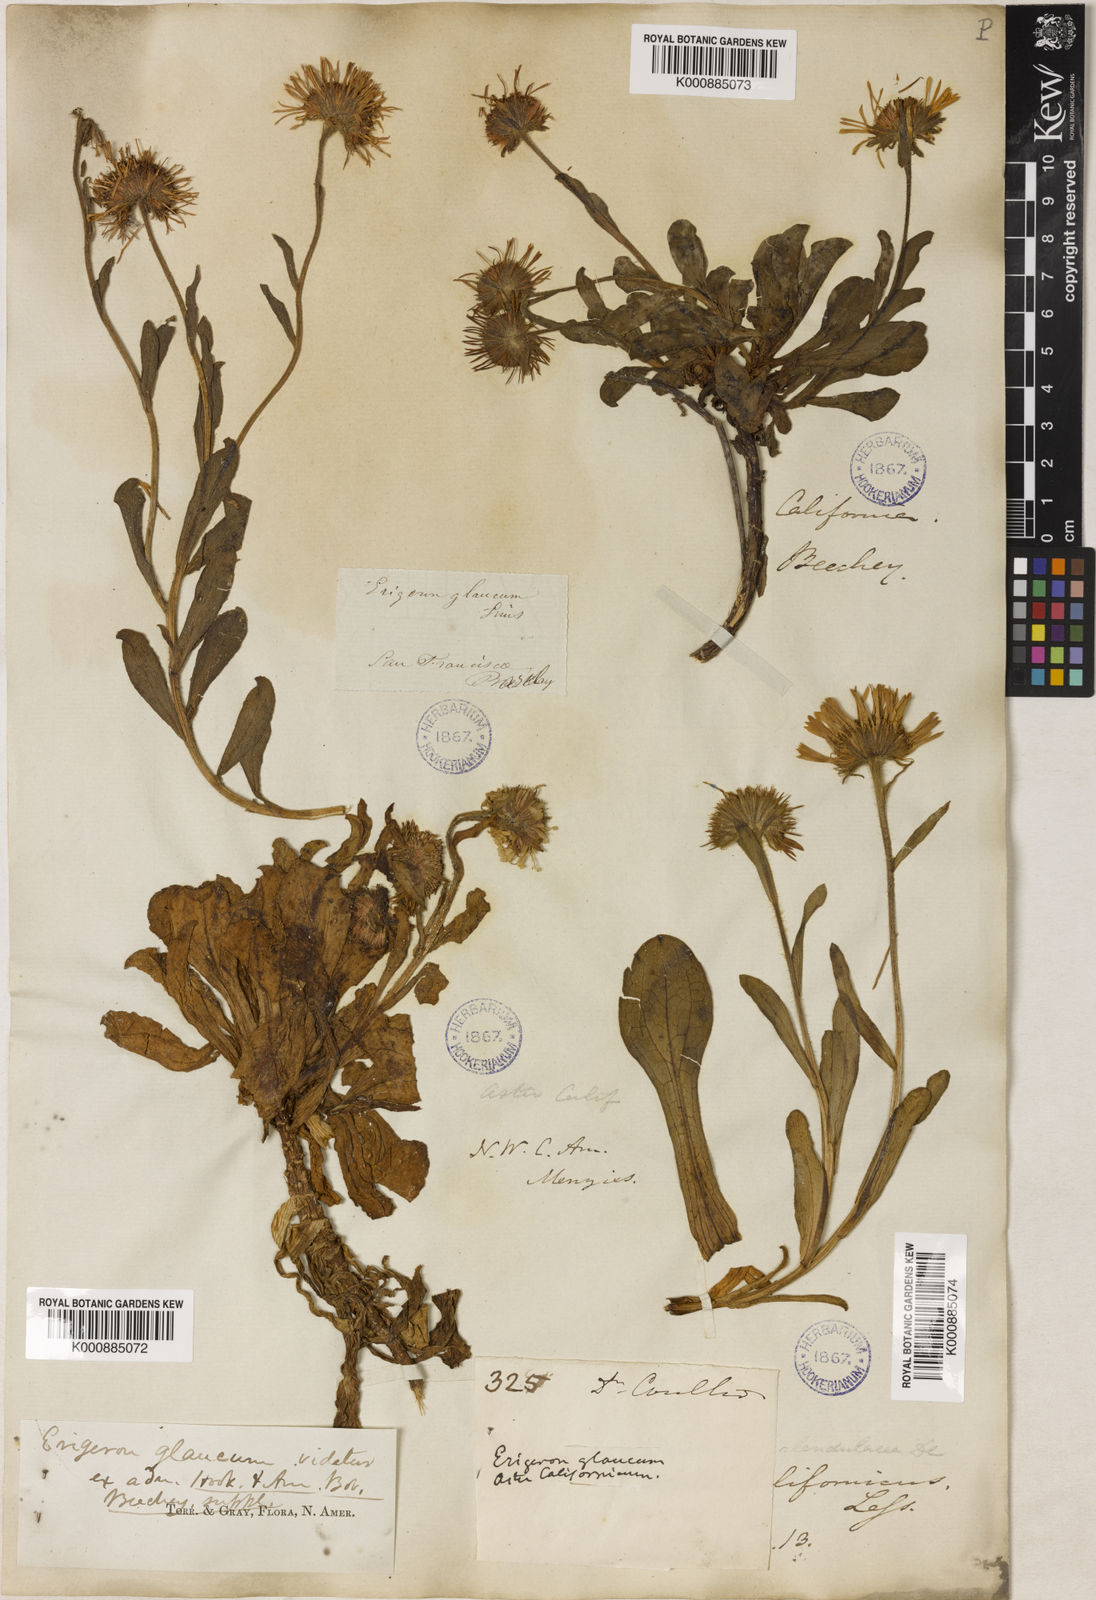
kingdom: Plantae
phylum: Tracheophyta
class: Magnoliopsida
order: Asterales
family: Asteraceae
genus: Erigeron
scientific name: Erigeron glaucus
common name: Seaside daisy
